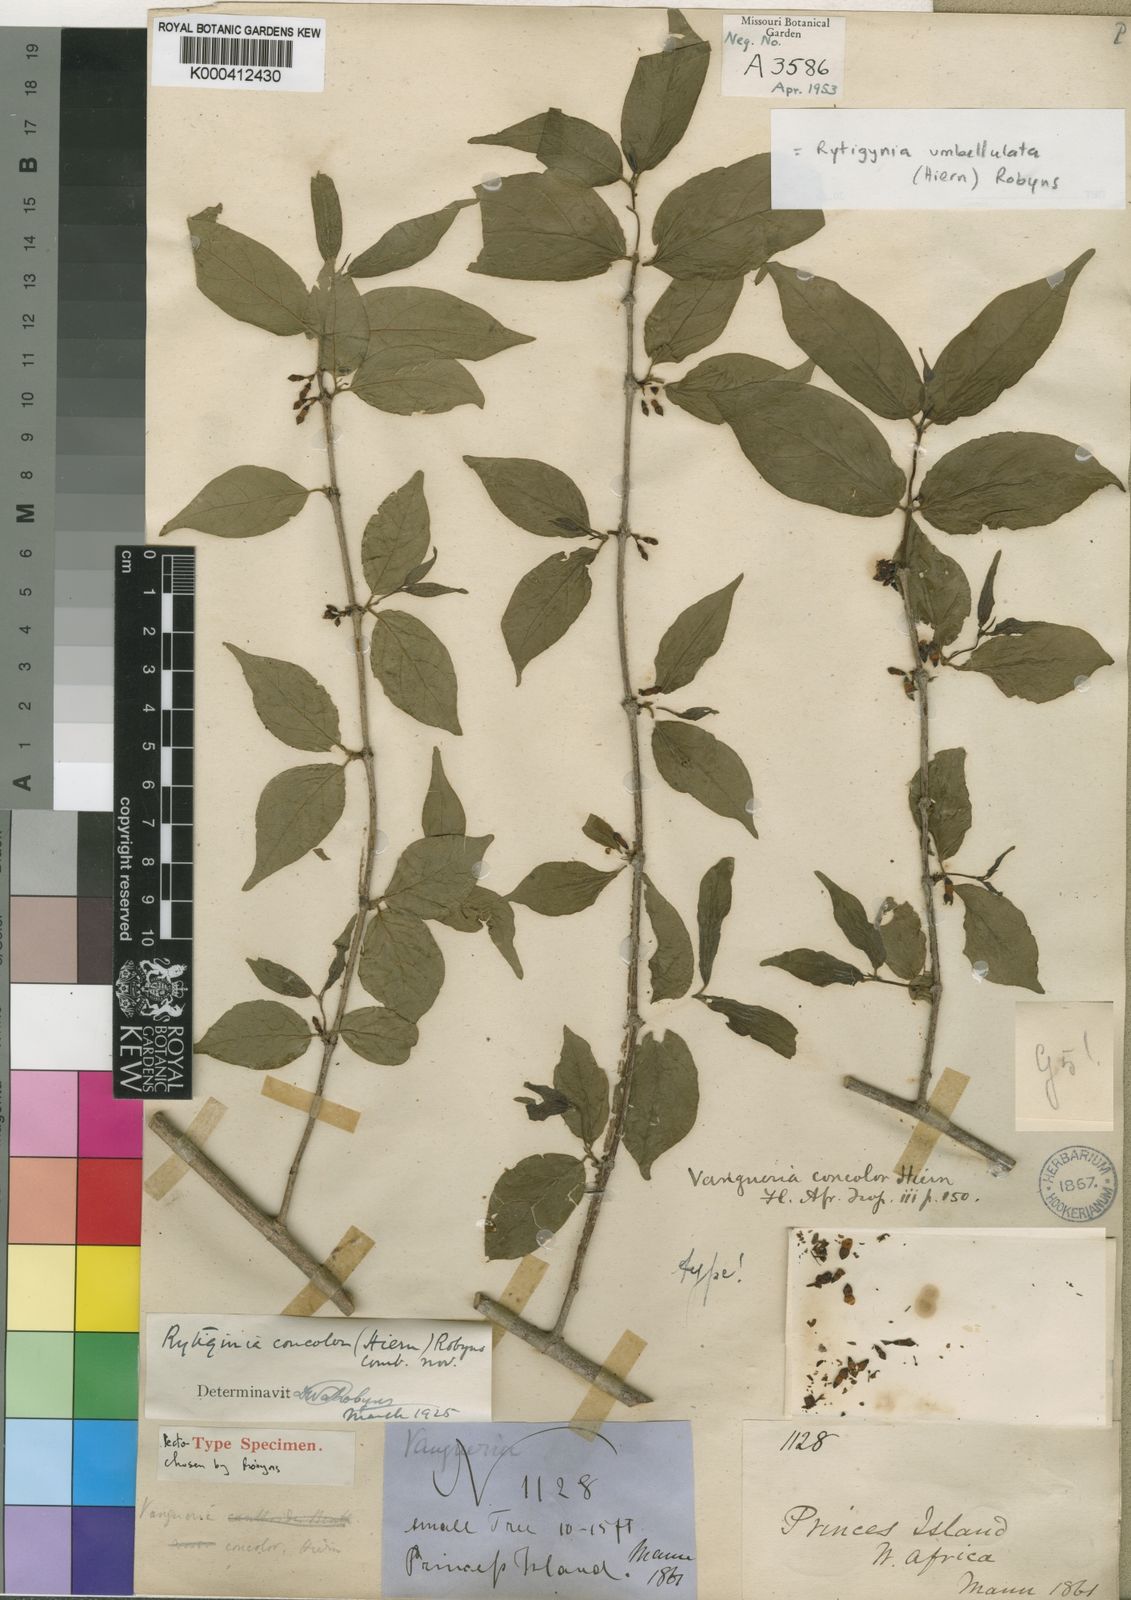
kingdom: Plantae
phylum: Tracheophyta
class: Magnoliopsida
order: Gentianales
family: Rubiaceae
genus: Rytigynia
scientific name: Rytigynia umbellulata
